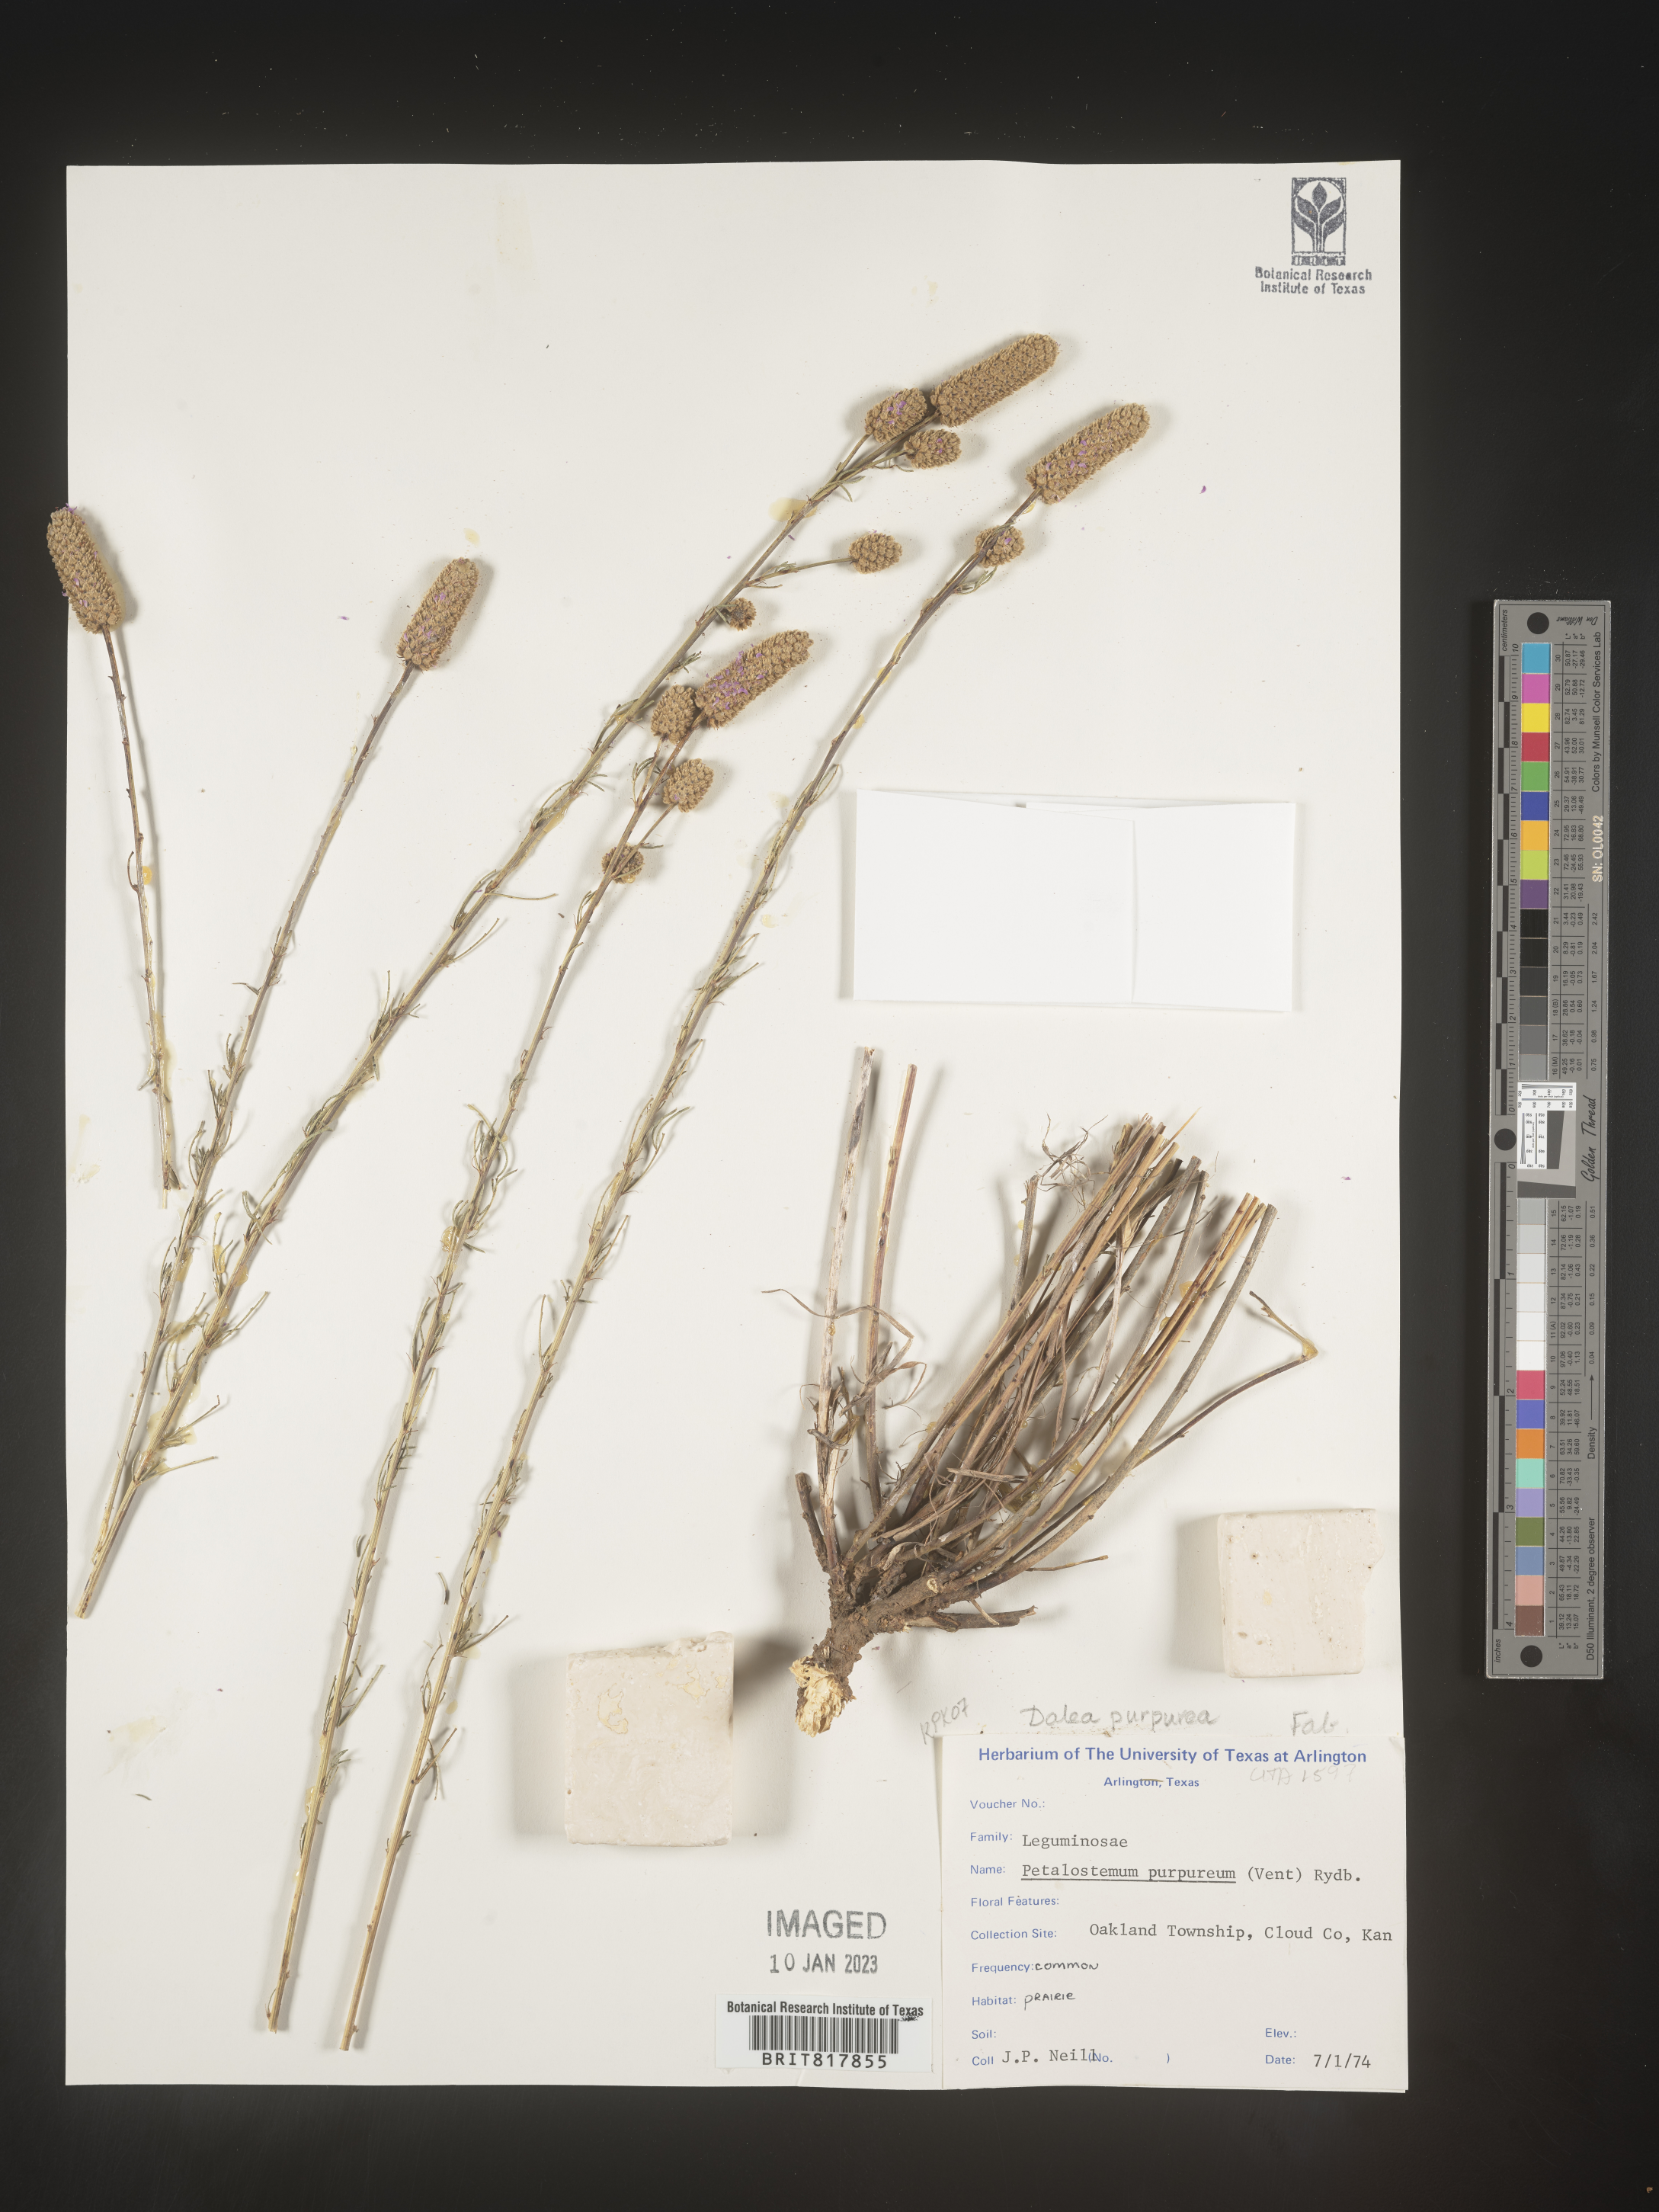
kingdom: Plantae
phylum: Tracheophyta
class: Magnoliopsida
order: Fabales
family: Fabaceae
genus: Dalea
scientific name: Dalea purpurea
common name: Purple prairie-clover
